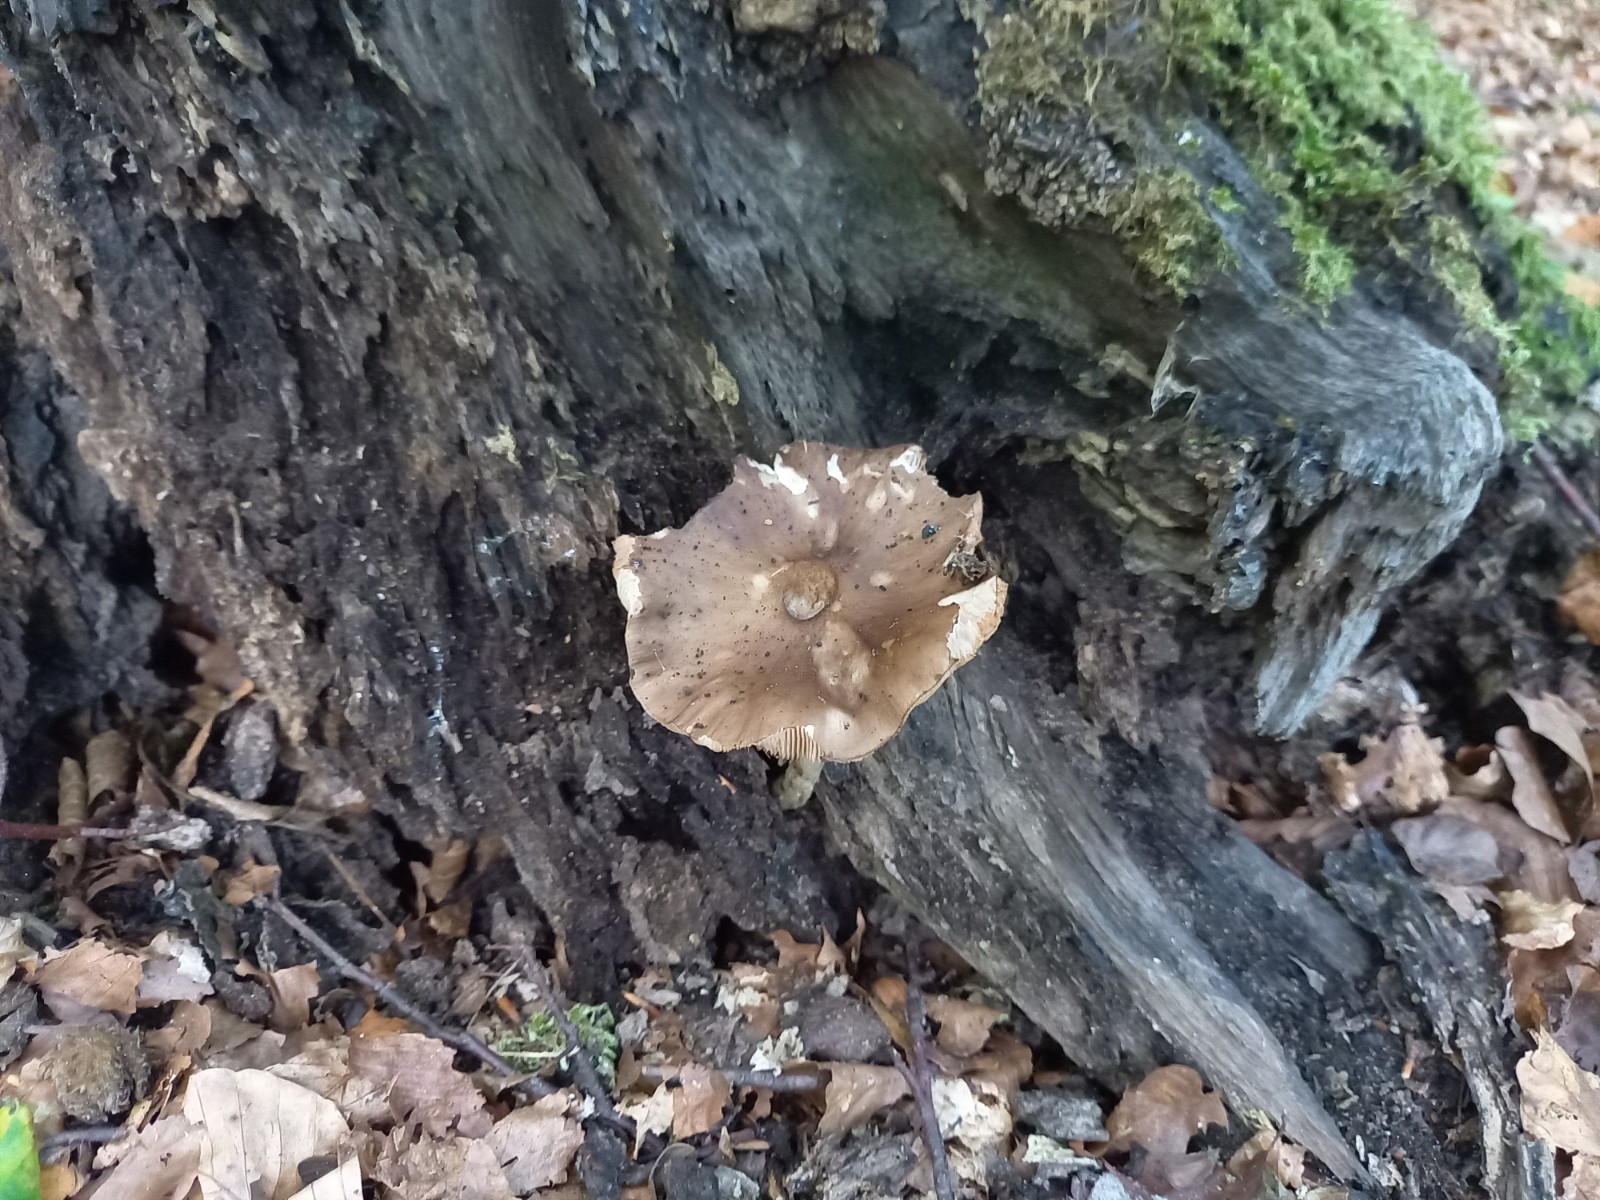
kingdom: Fungi
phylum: Basidiomycota
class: Agaricomycetes
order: Agaricales
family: Pluteaceae
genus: Pluteus
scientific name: Pluteus cervinus
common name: sodfarvet skærmhat
